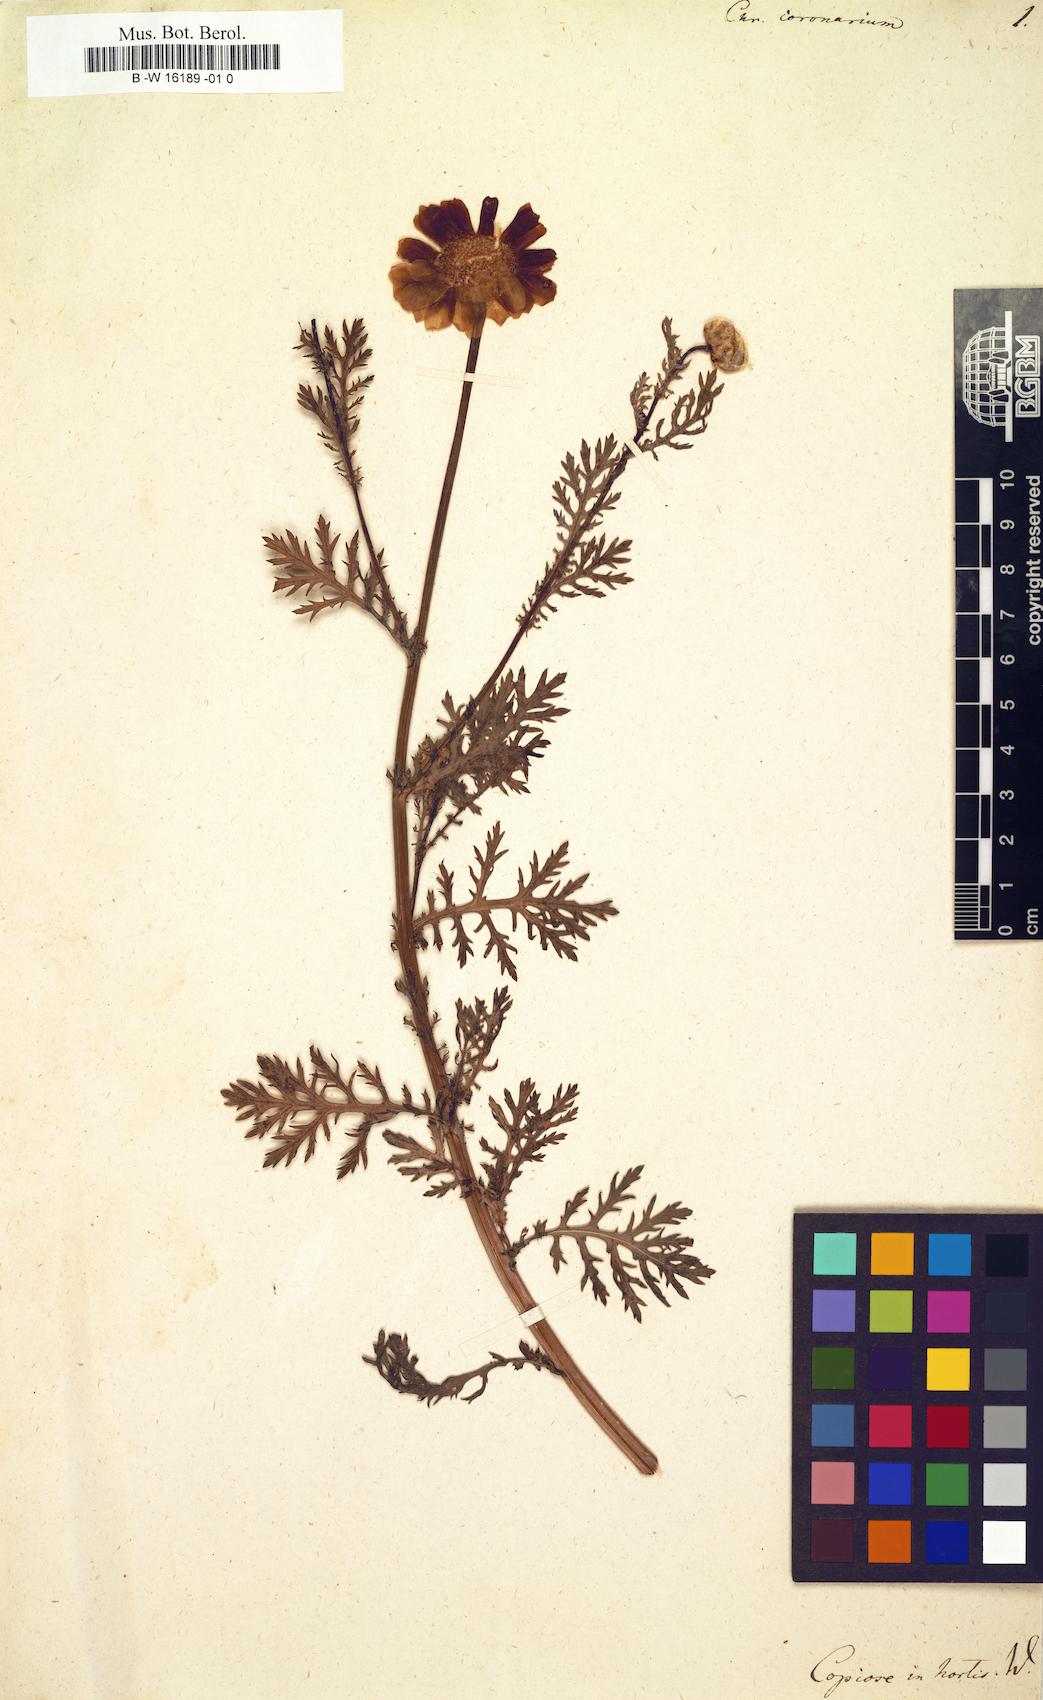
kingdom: Plantae
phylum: Tracheophyta
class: Magnoliopsida
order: Asterales
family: Asteraceae
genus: Glebionis
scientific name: Glebionis coronaria
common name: Crowndaisy
